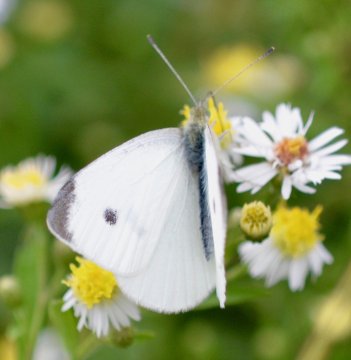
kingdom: Animalia
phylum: Arthropoda
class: Insecta
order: Lepidoptera
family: Pieridae
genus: Pieris
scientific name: Pieris rapae
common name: Cabbage White
